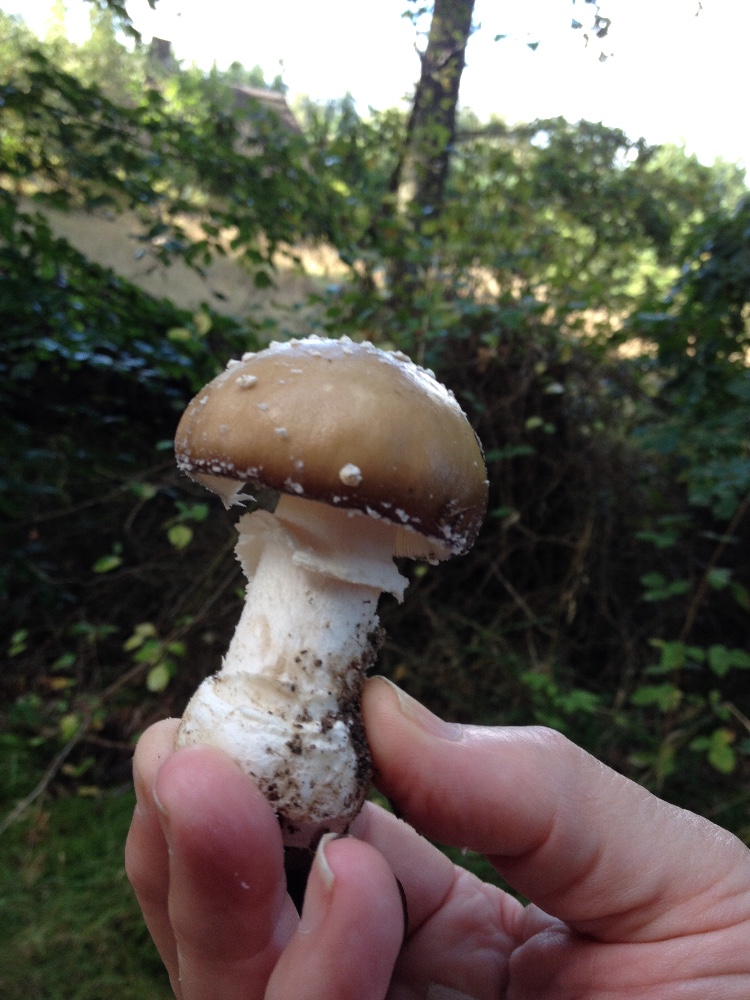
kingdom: Fungi
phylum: Basidiomycota
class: Agaricomycetes
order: Agaricales
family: Amanitaceae
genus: Amanita
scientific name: Amanita pantherina
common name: panter-fluesvamp
